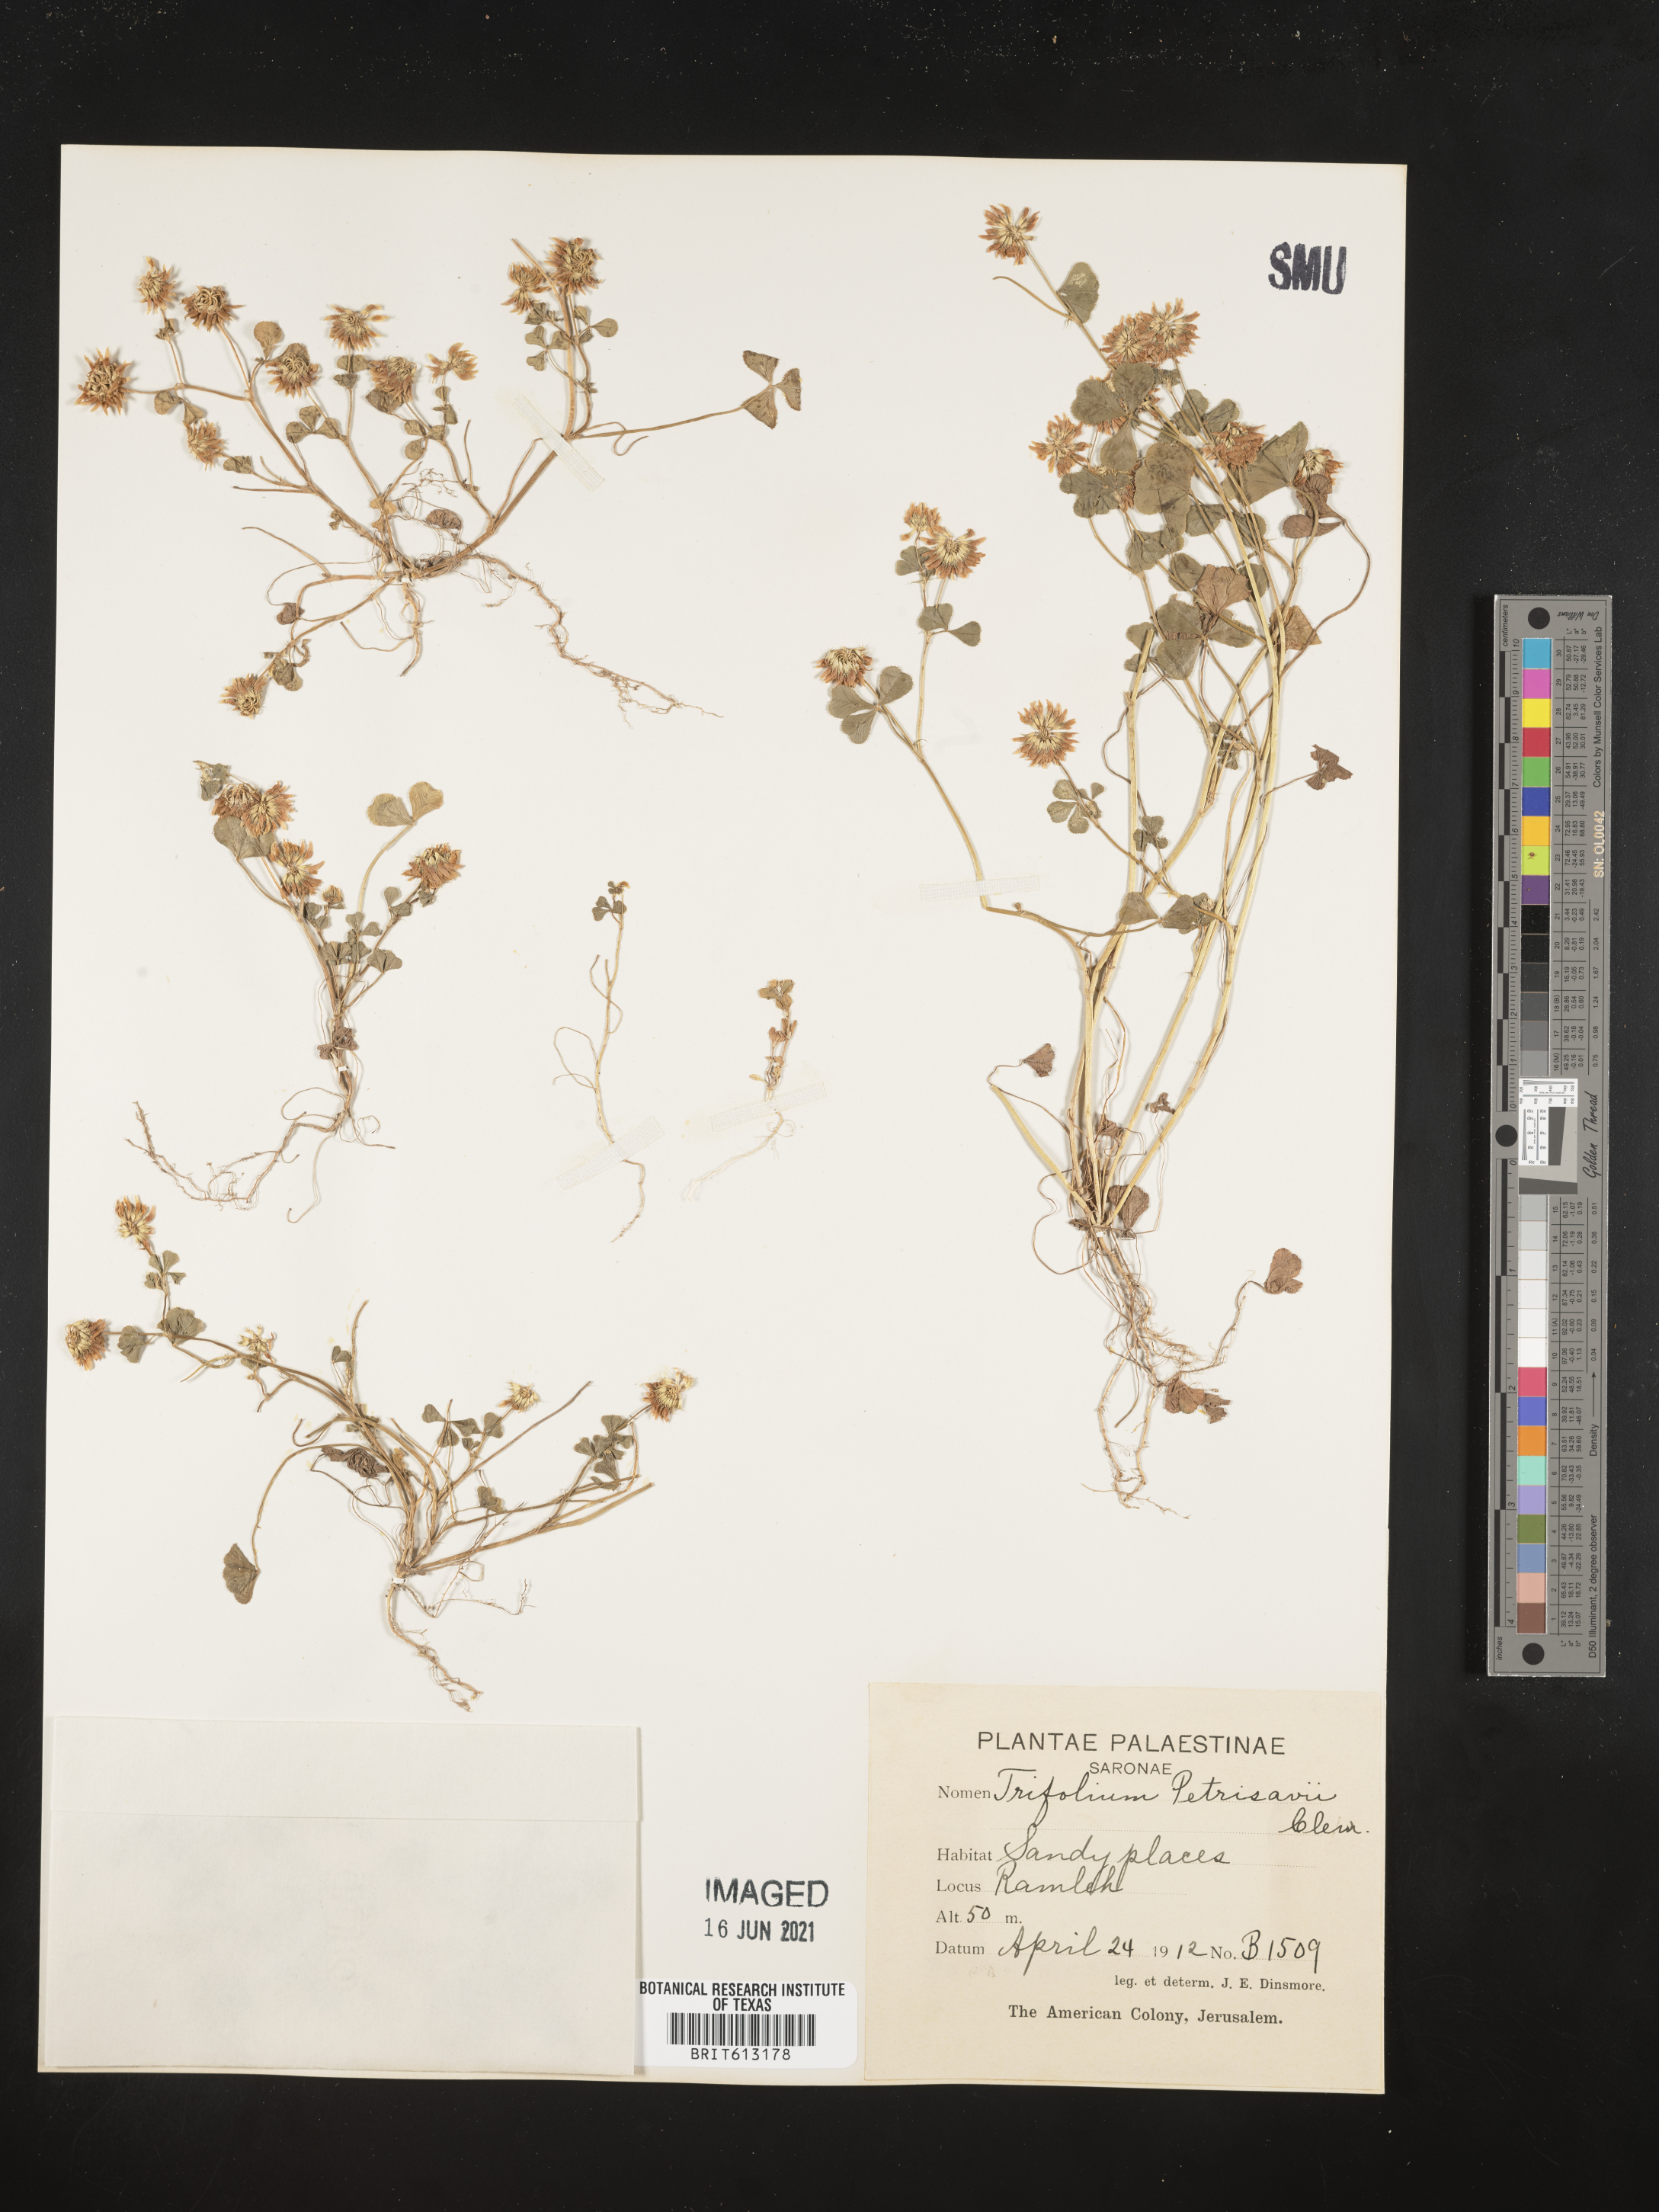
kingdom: Plantae
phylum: Tracheophyta
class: Magnoliopsida
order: Fabales
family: Fabaceae
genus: Trifolium
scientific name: Trifolium nigrescens
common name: Small white clover
